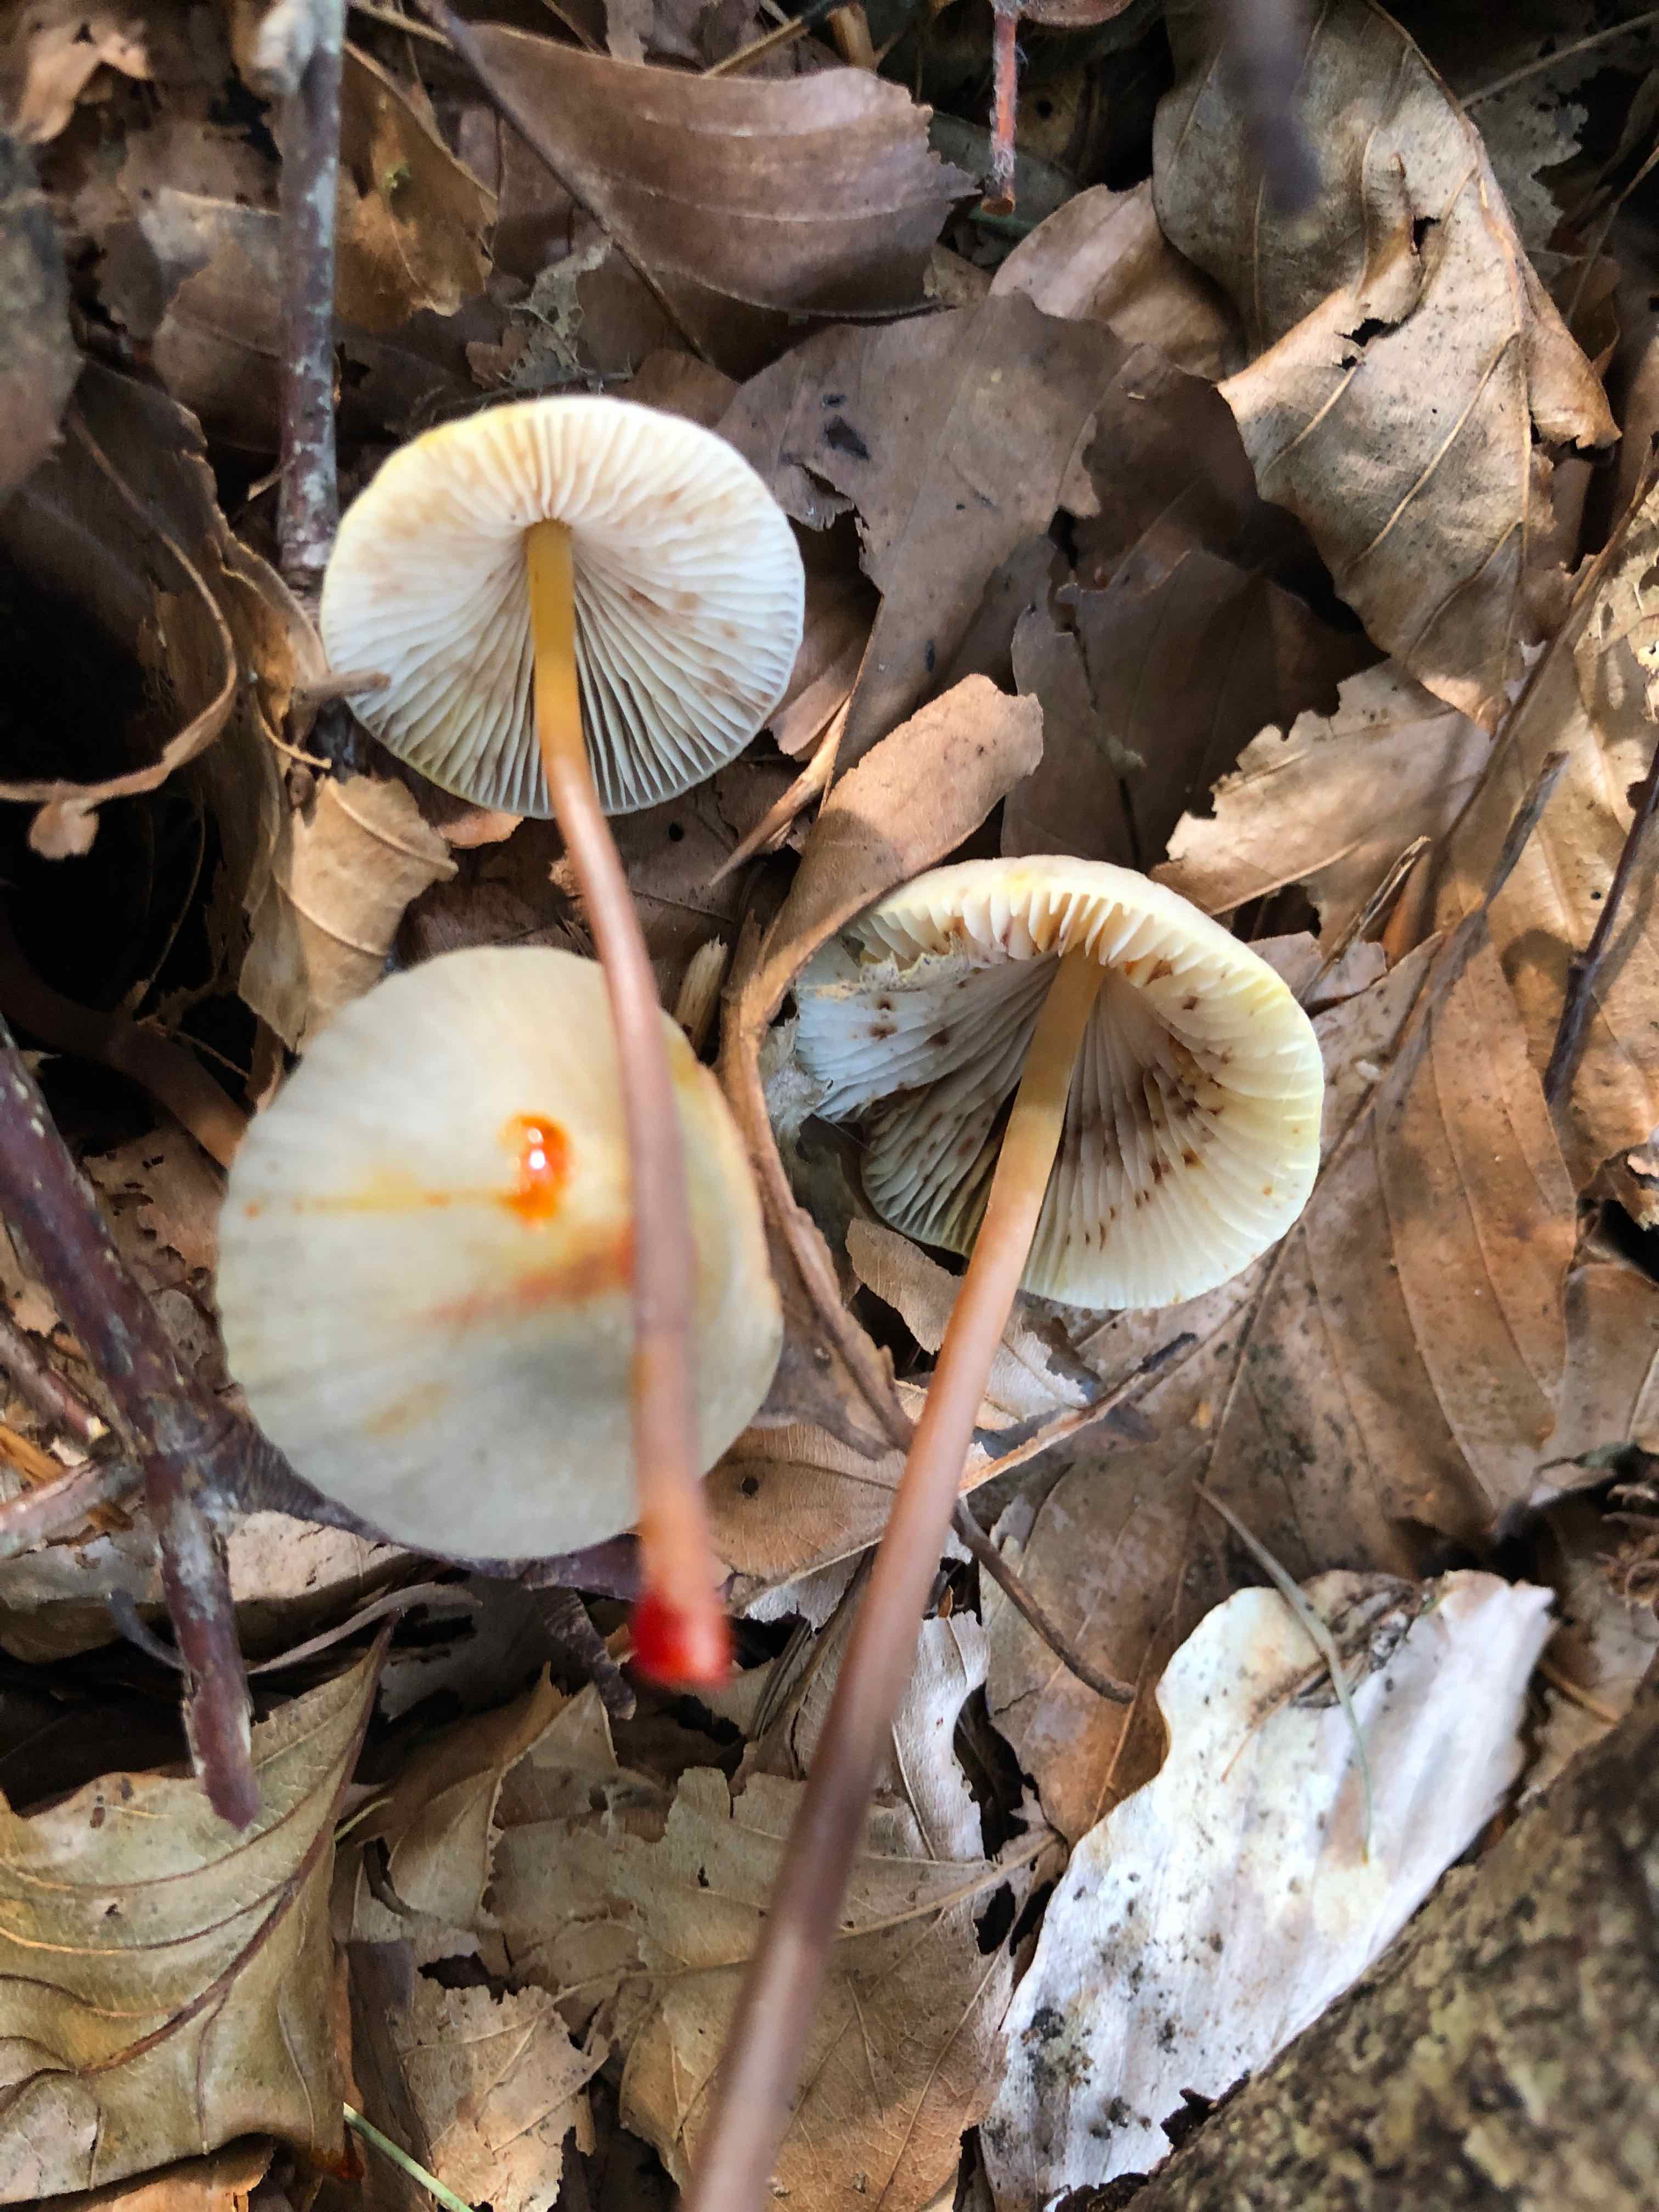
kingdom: Fungi
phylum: Basidiomycota
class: Agaricomycetes
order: Agaricales
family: Mycenaceae
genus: Mycena
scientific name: Mycena crocata
